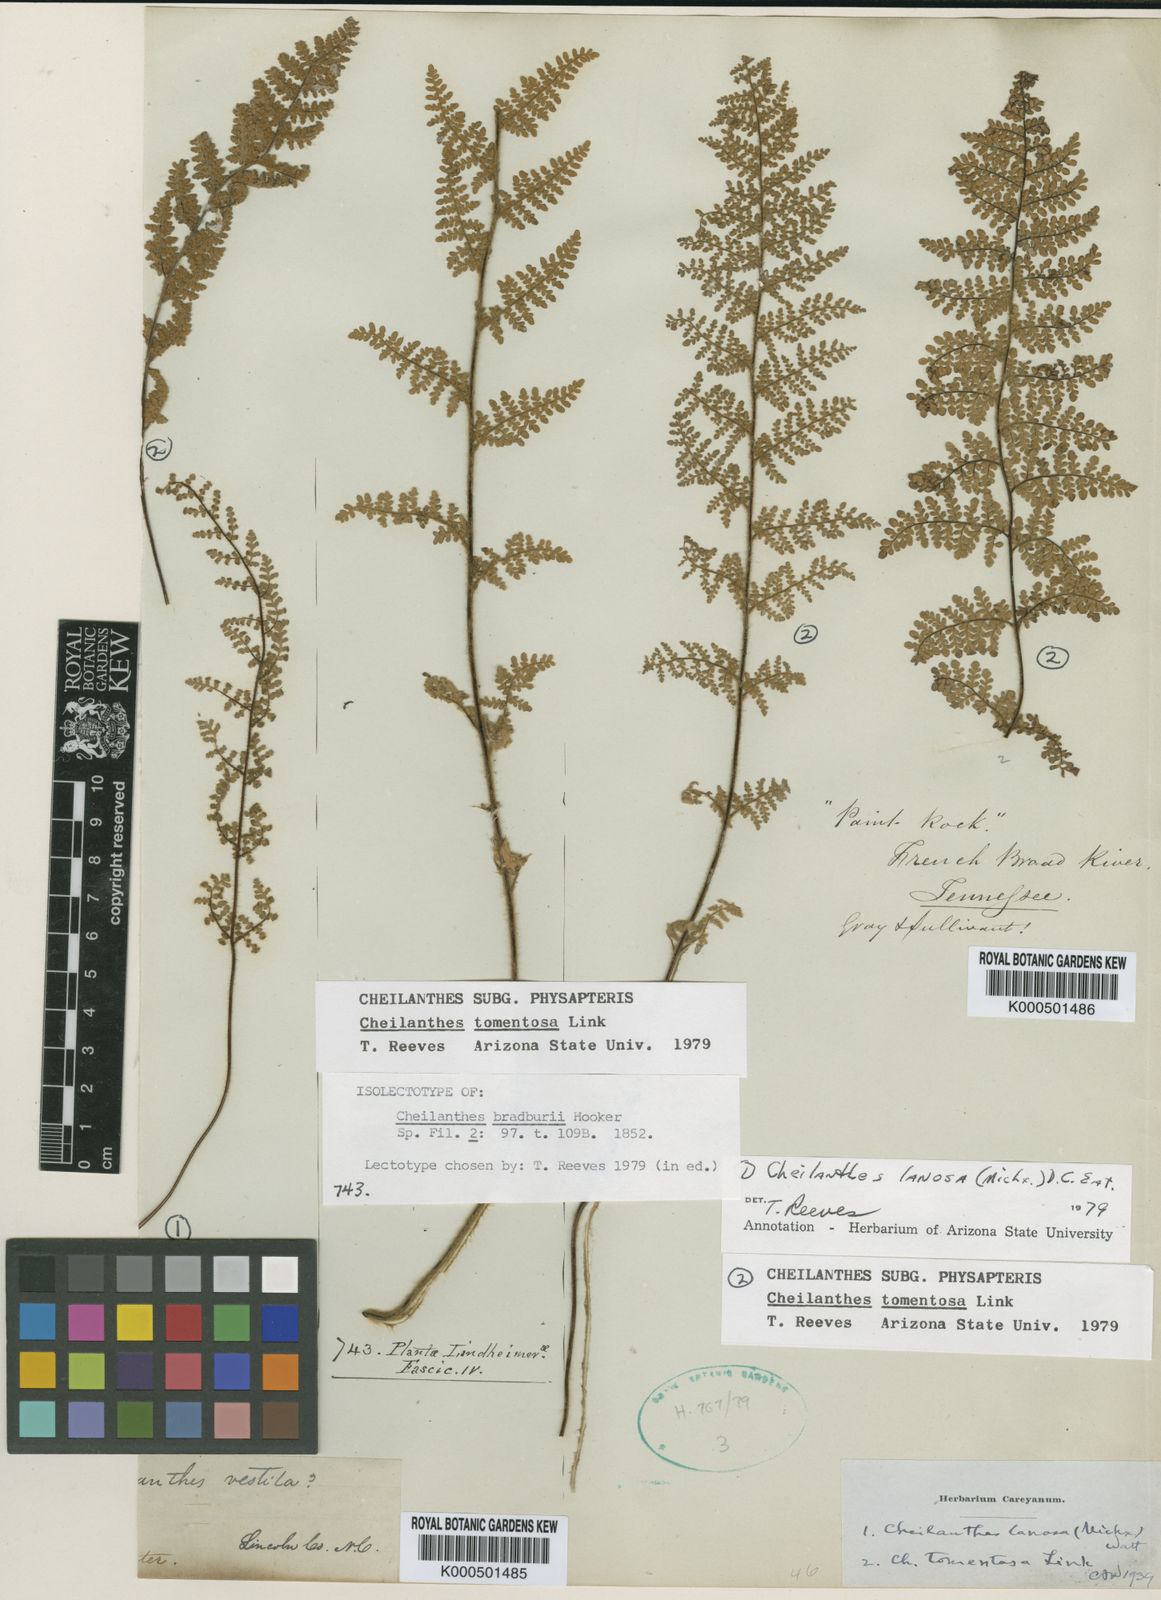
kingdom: Plantae
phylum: Tracheophyta
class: Polypodiopsida
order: Polypodiales
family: Pteridaceae
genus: Myriopteris
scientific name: Myriopteris tomentosa
